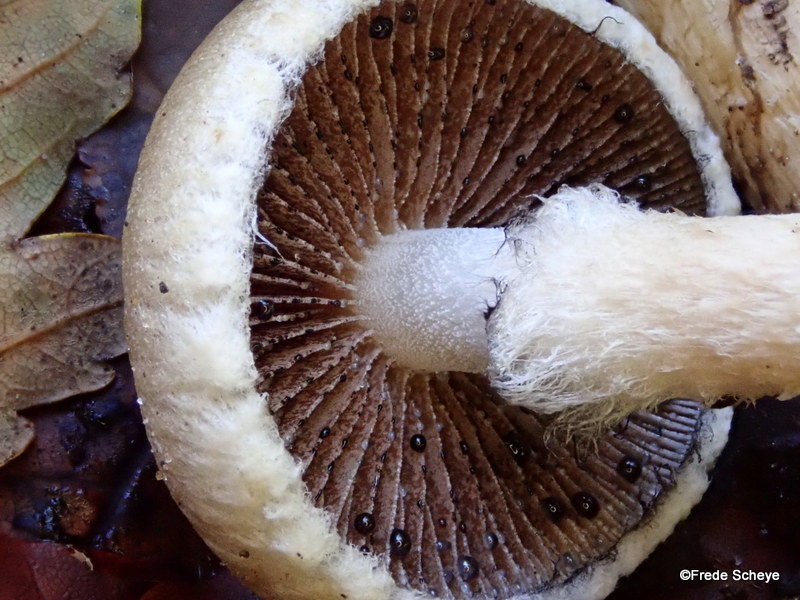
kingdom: Fungi
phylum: Basidiomycota
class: Agaricomycetes
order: Agaricales
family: Psathyrellaceae
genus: Lacrymaria
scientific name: Lacrymaria lacrymabunda
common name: grædende mørkhat
